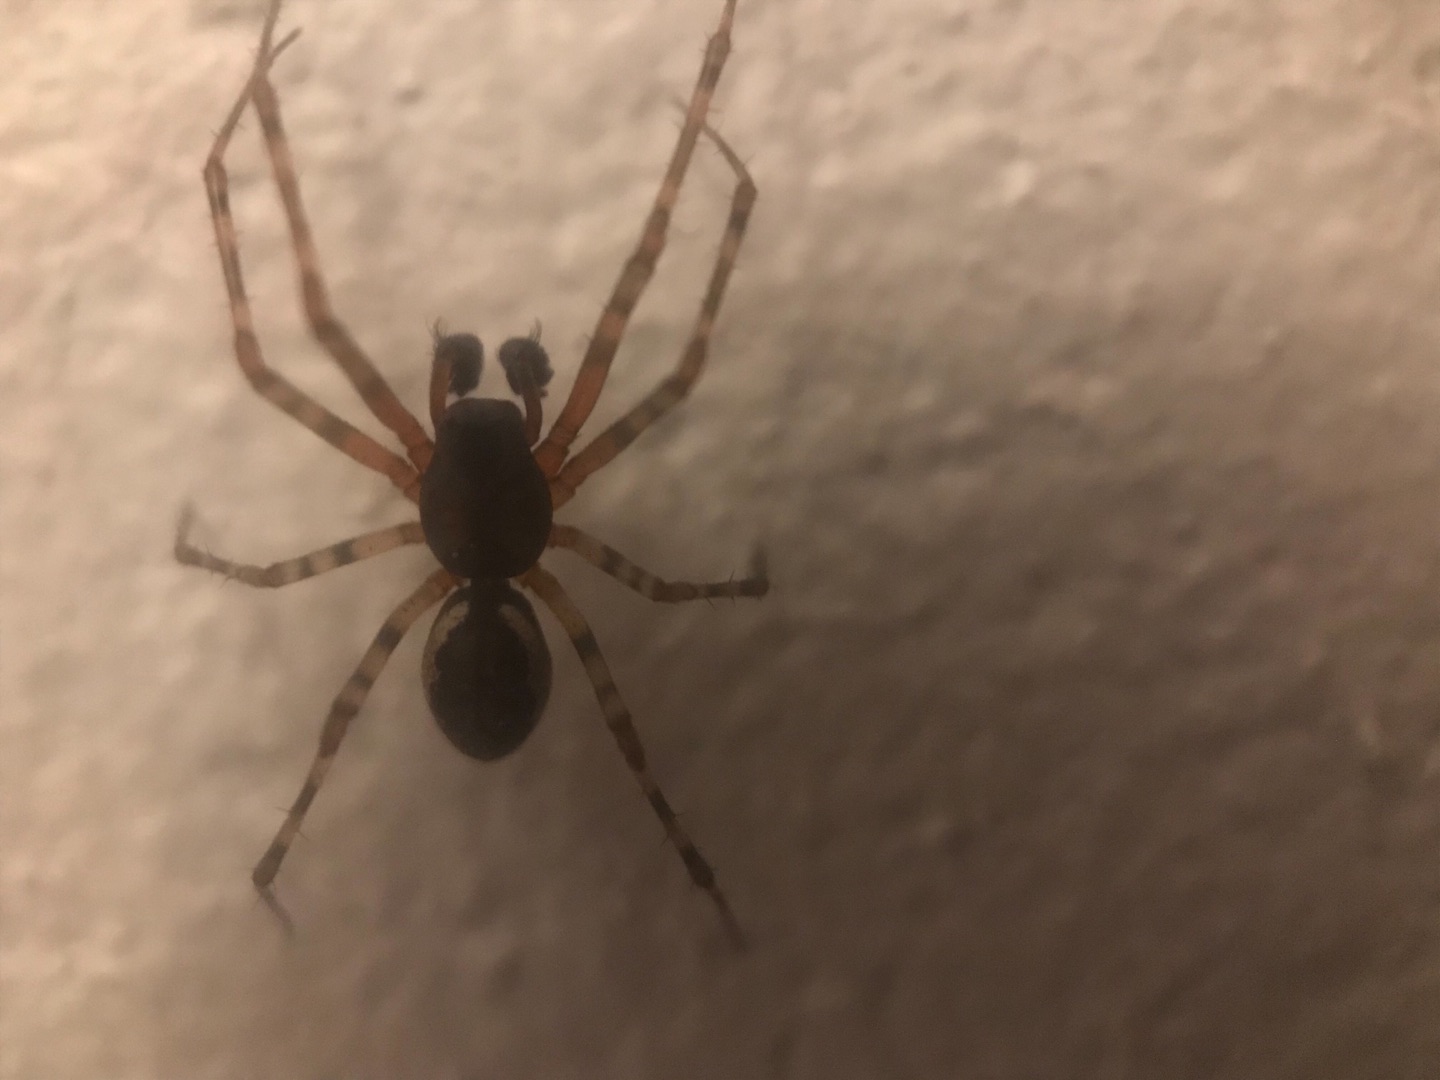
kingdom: Animalia
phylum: Arthropoda
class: Arachnida
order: Araneae
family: Linyphiidae
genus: Neriene
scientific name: Neriene montana
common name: Buskbaldakinspinder
